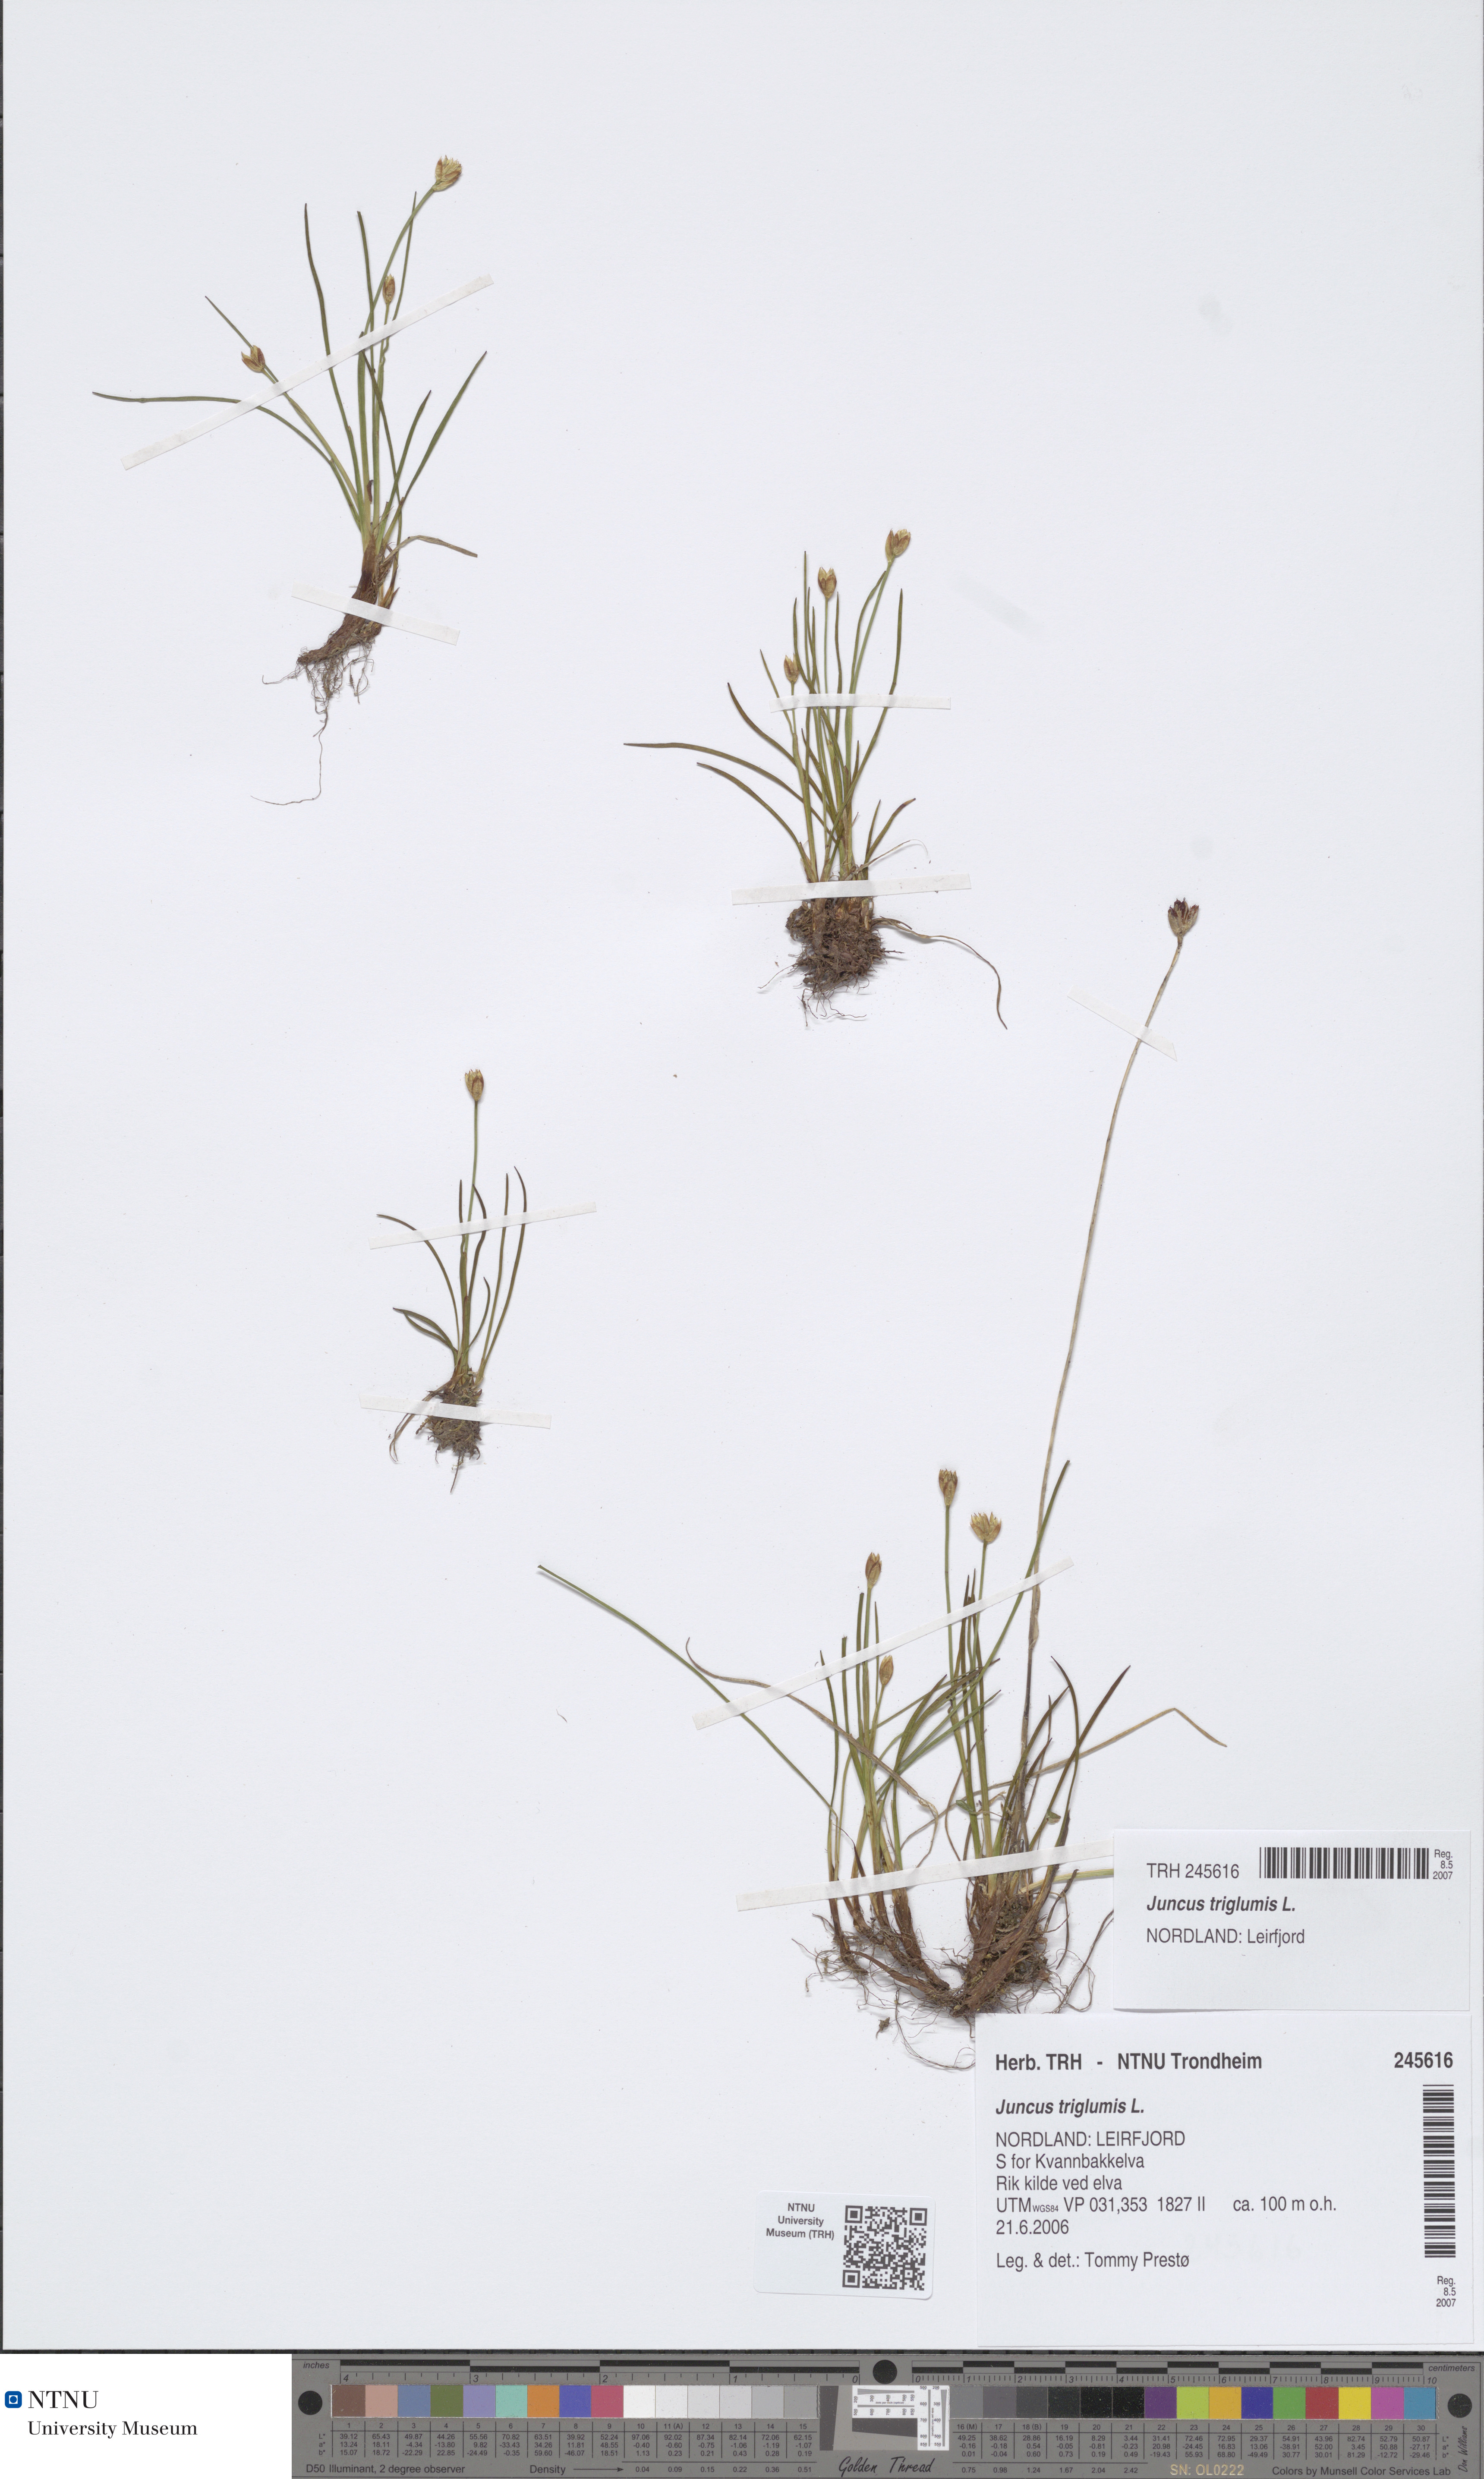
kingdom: Plantae
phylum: Tracheophyta
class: Liliopsida
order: Poales
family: Juncaceae
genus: Juncus
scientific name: Juncus triglumis
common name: Three-flowered rush
